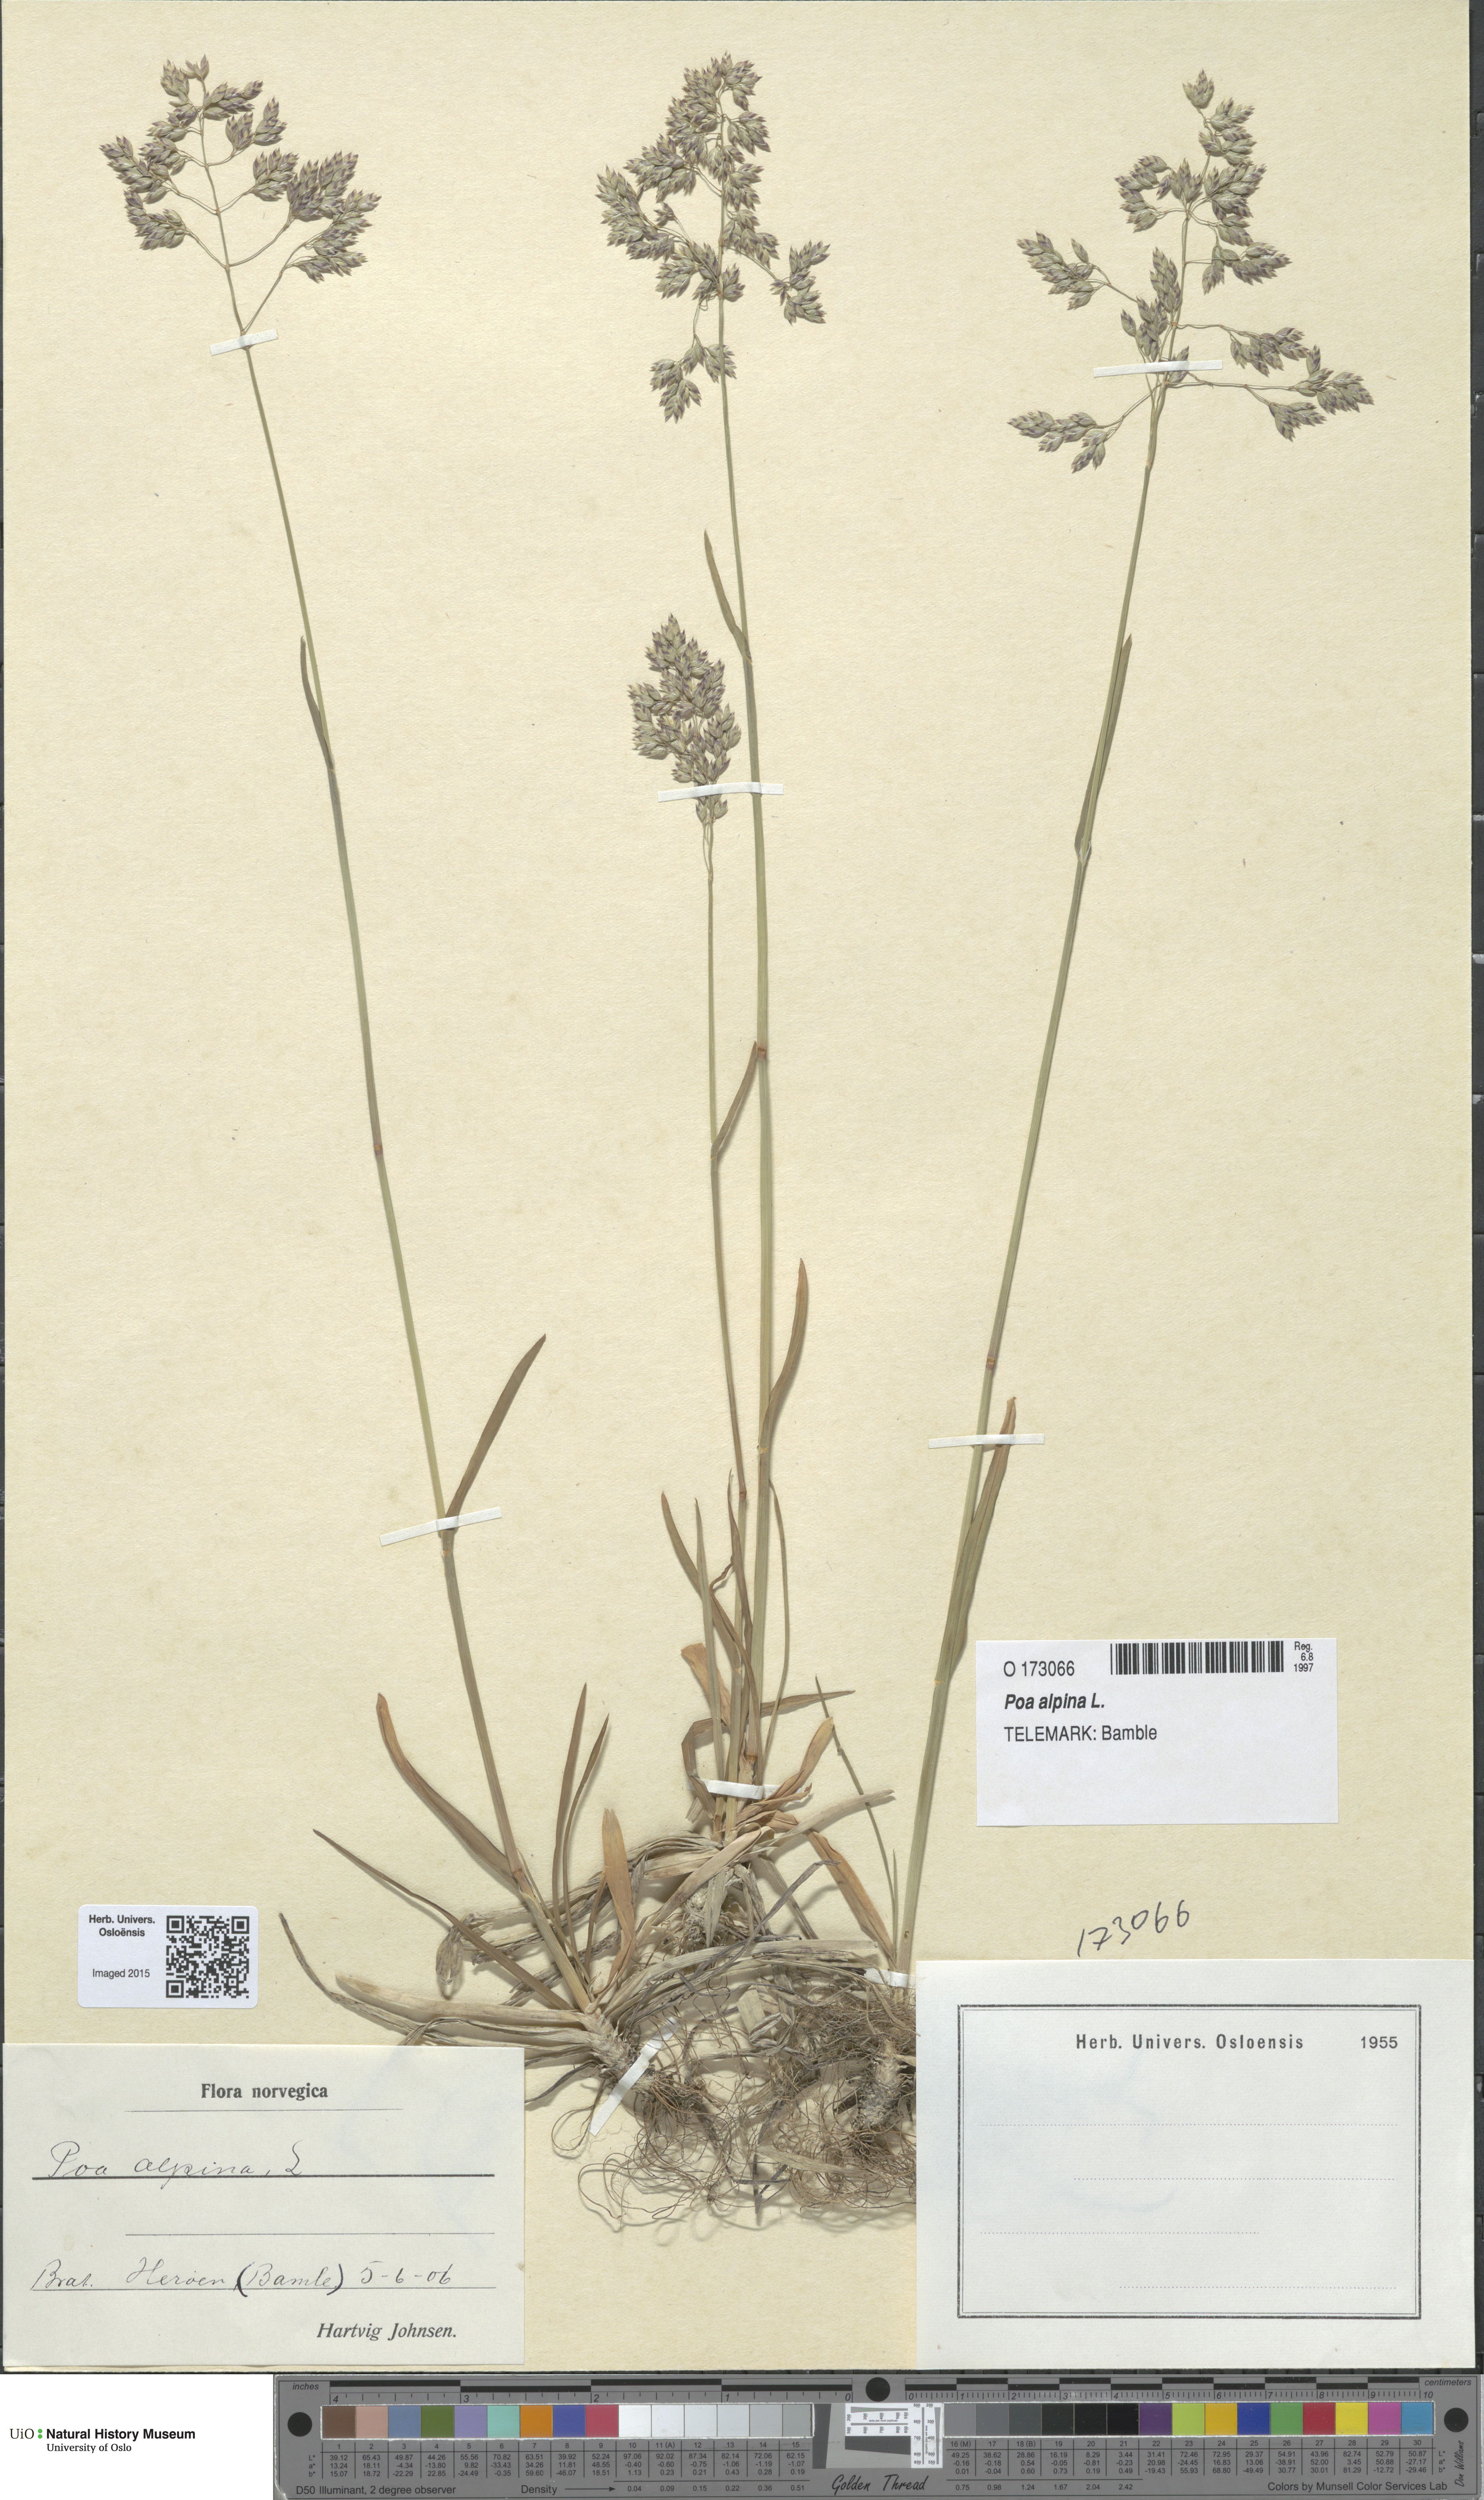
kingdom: Plantae
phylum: Tracheophyta
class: Liliopsida
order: Poales
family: Poaceae
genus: Poa
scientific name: Poa alpina
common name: Alpine bluegrass
